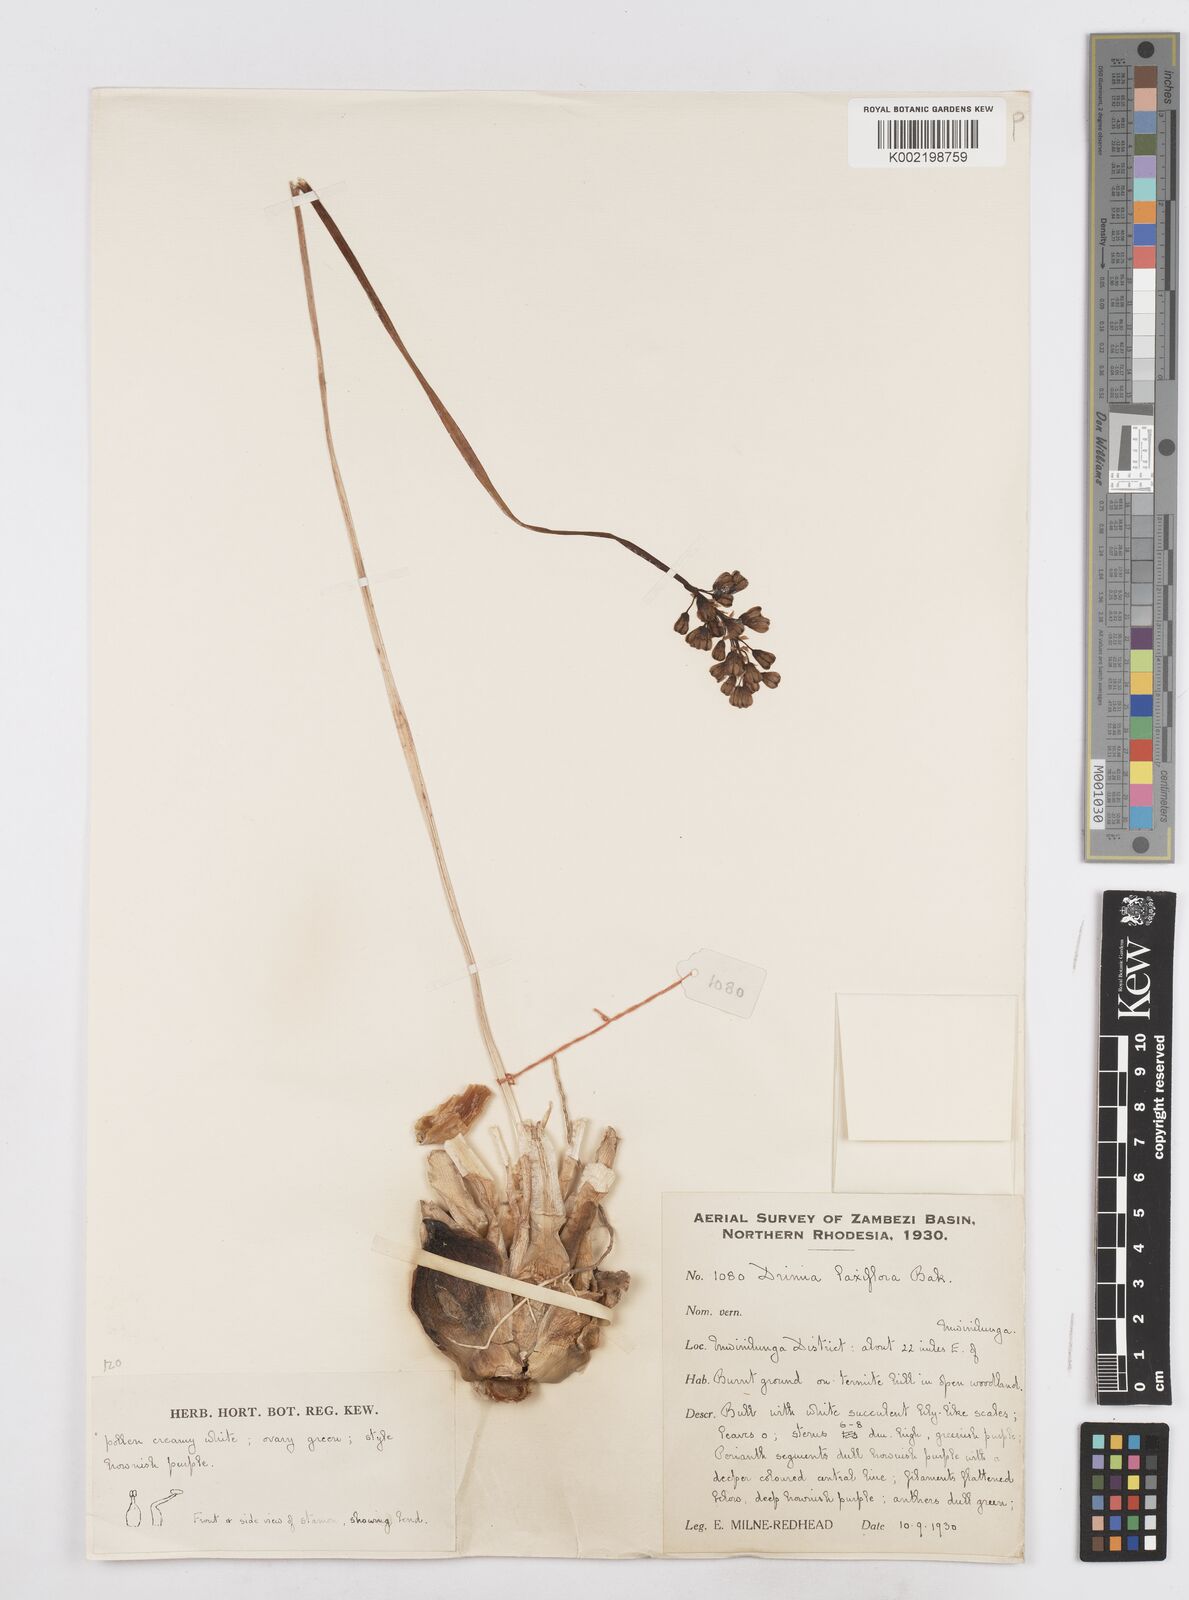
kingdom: Plantae
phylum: Tracheophyta
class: Liliopsida
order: Asparagales
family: Asparagaceae
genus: Drimia
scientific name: Drimia laxiflora
